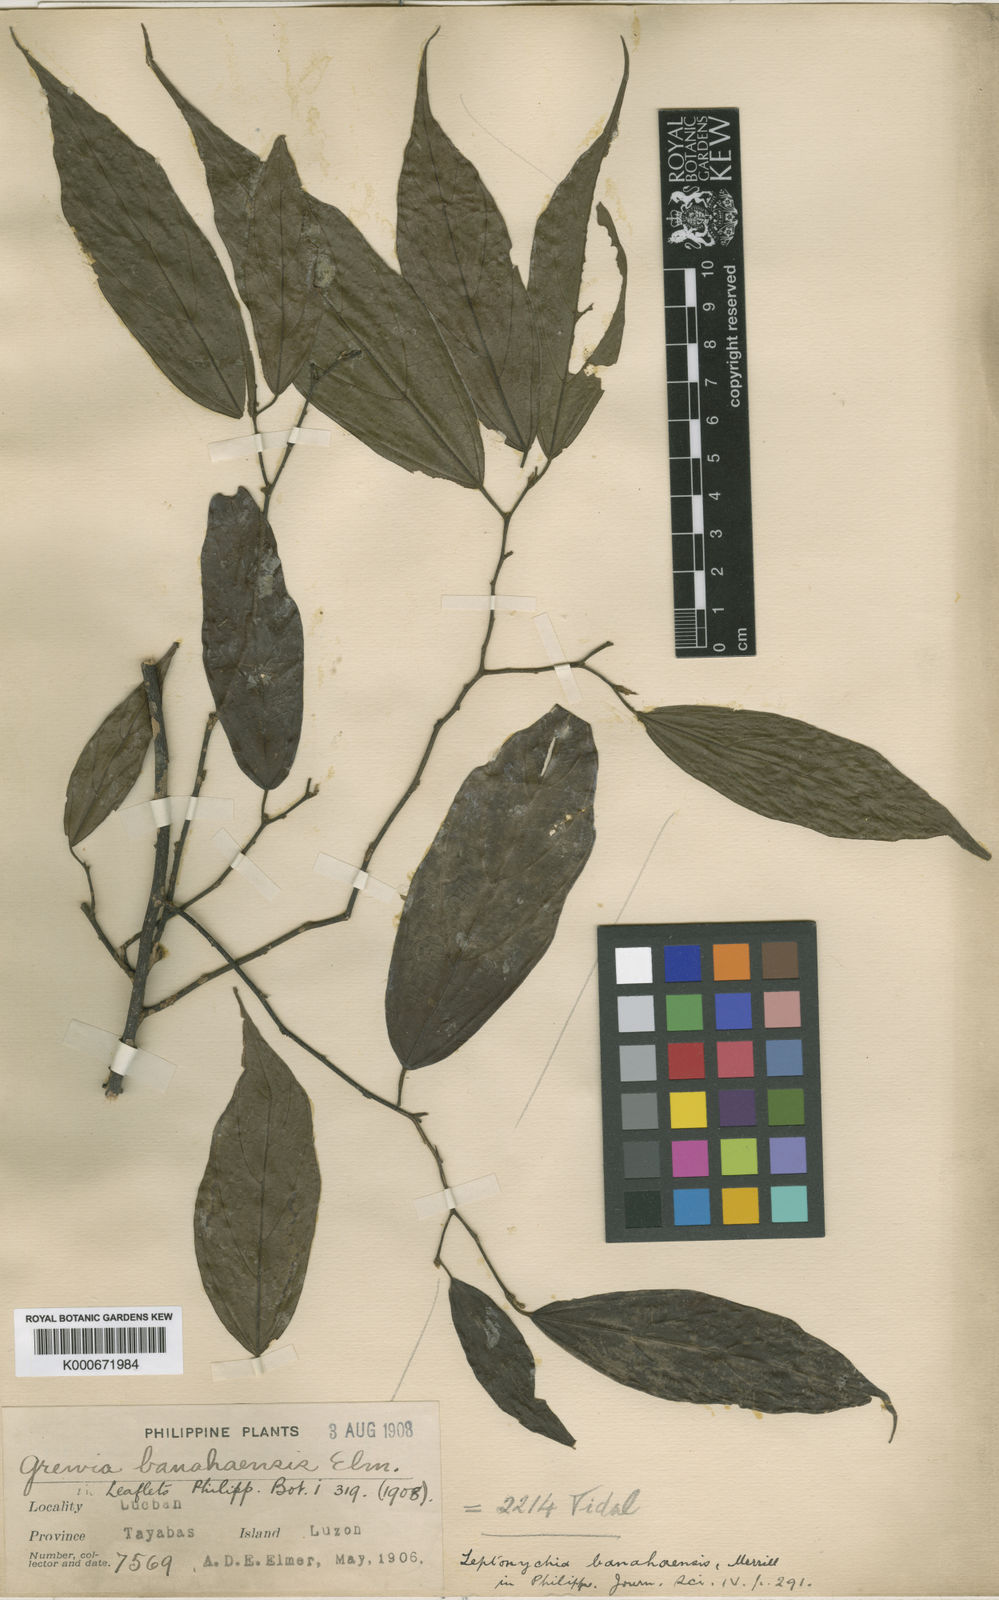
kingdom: Plantae
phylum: Tracheophyta
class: Magnoliopsida
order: Malvales
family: Malvaceae
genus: Leptonychia
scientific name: Leptonychia banahaensis
